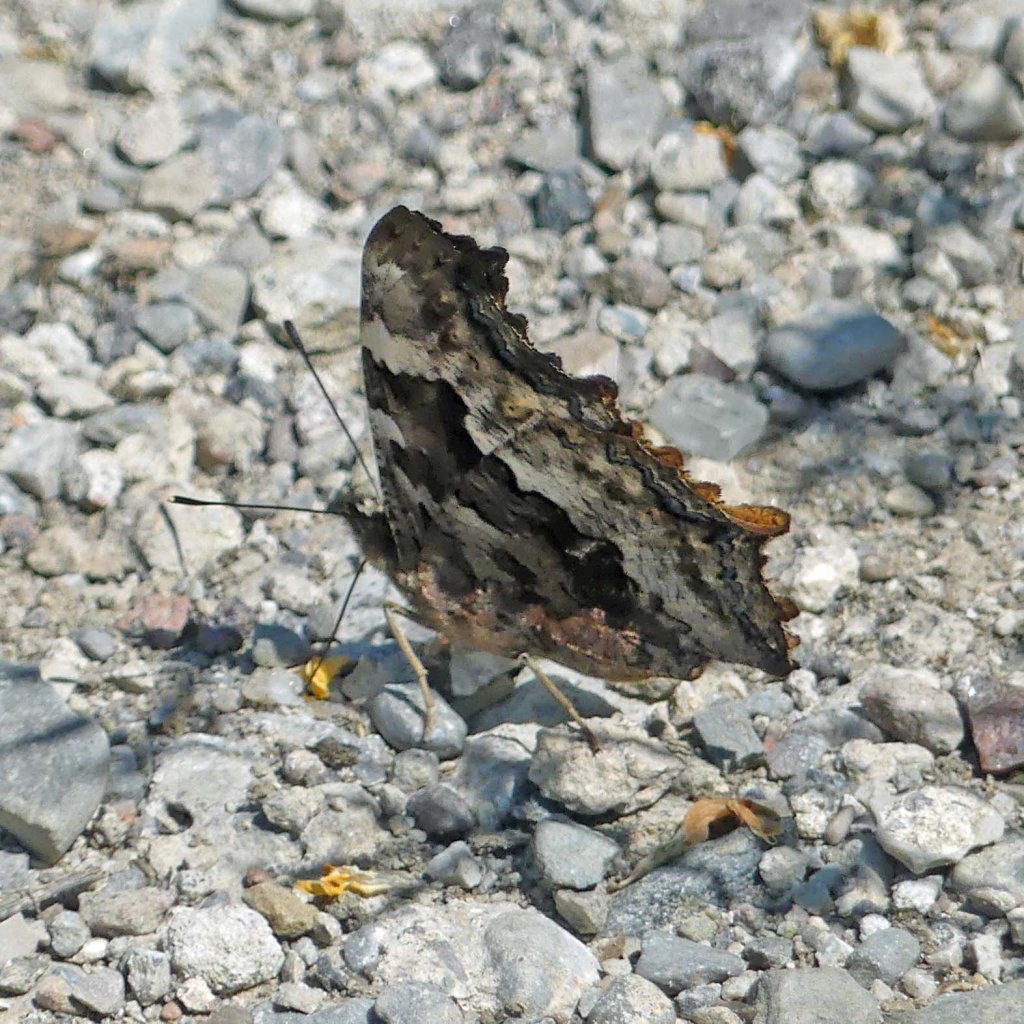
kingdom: Animalia
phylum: Arthropoda
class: Insecta
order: Lepidoptera
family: Nymphalidae
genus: Polygonia
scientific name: Polygonia vaualbum
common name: Compton Tortoiseshell
